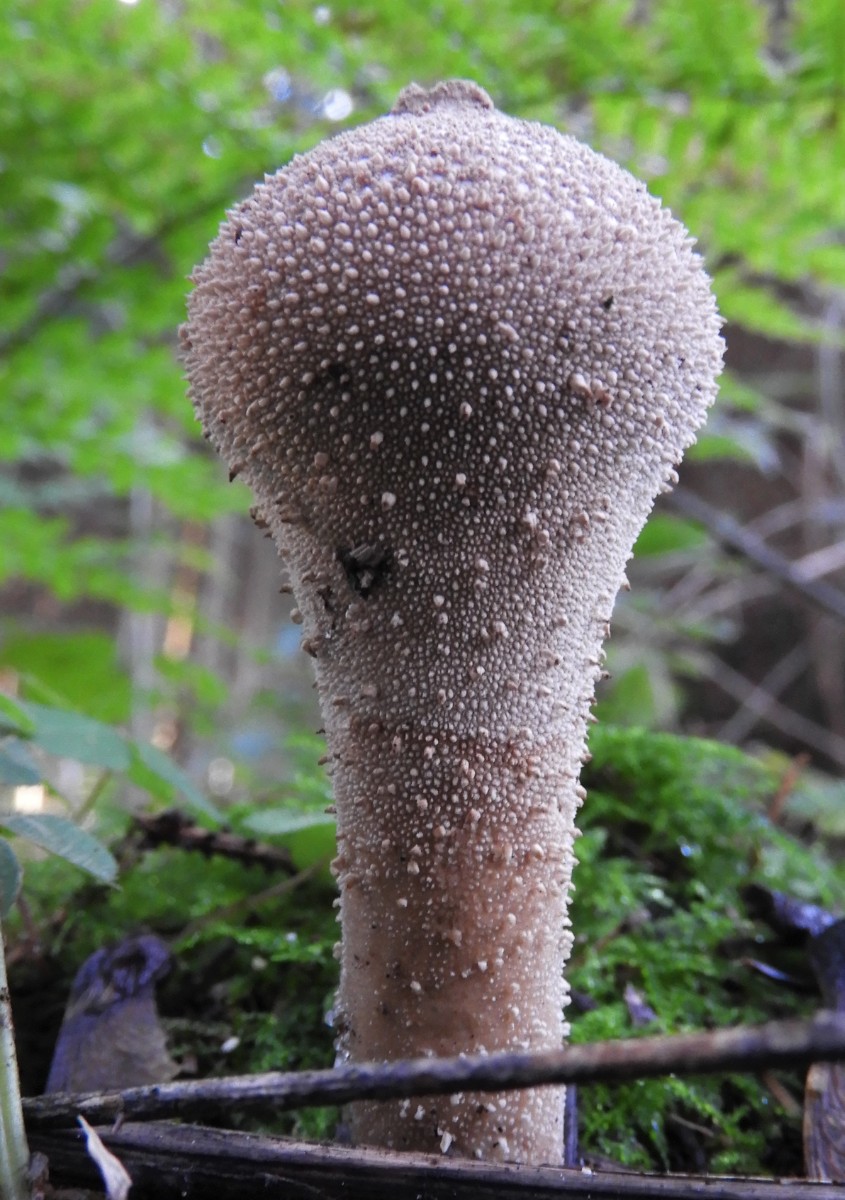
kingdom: Fungi
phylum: Basidiomycota
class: Agaricomycetes
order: Agaricales
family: Lycoperdaceae
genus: Lycoperdon
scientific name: Lycoperdon excipuliforme
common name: højstokket støvbold
